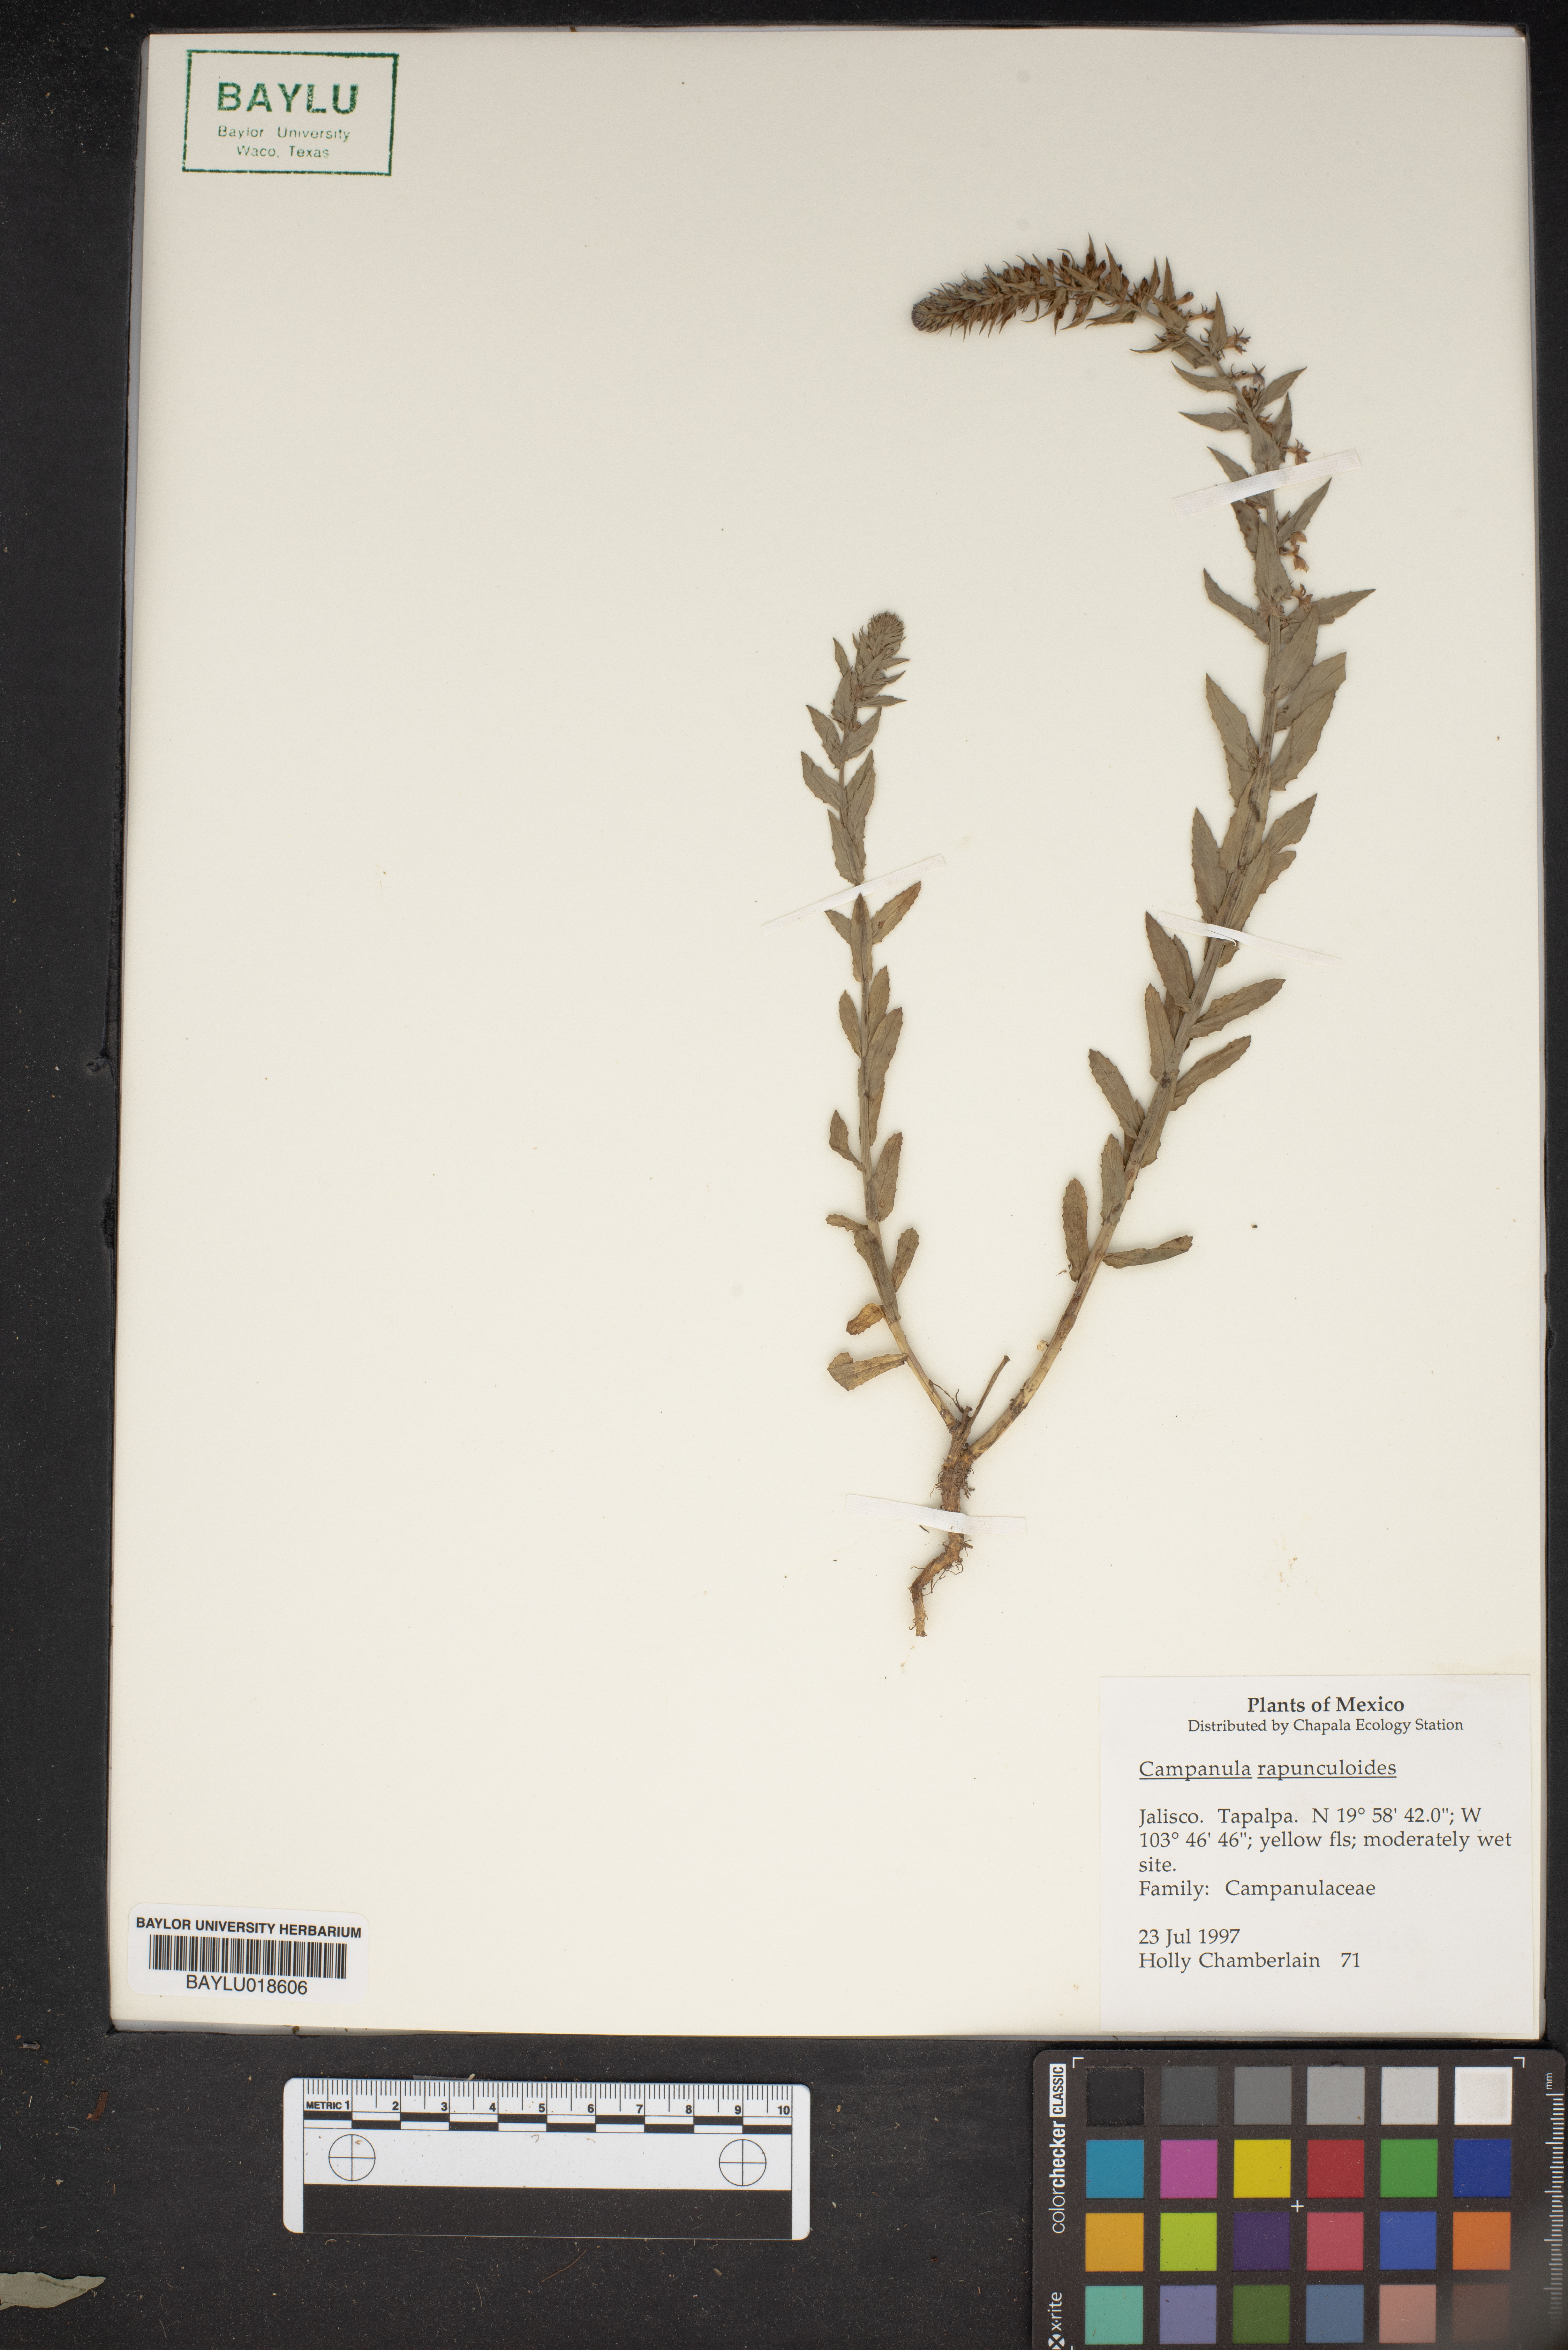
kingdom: Plantae
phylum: Tracheophyta
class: Magnoliopsida
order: Asterales
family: Campanulaceae
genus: Campanula
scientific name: Campanula rapunculoides
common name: Creeping bellflower
